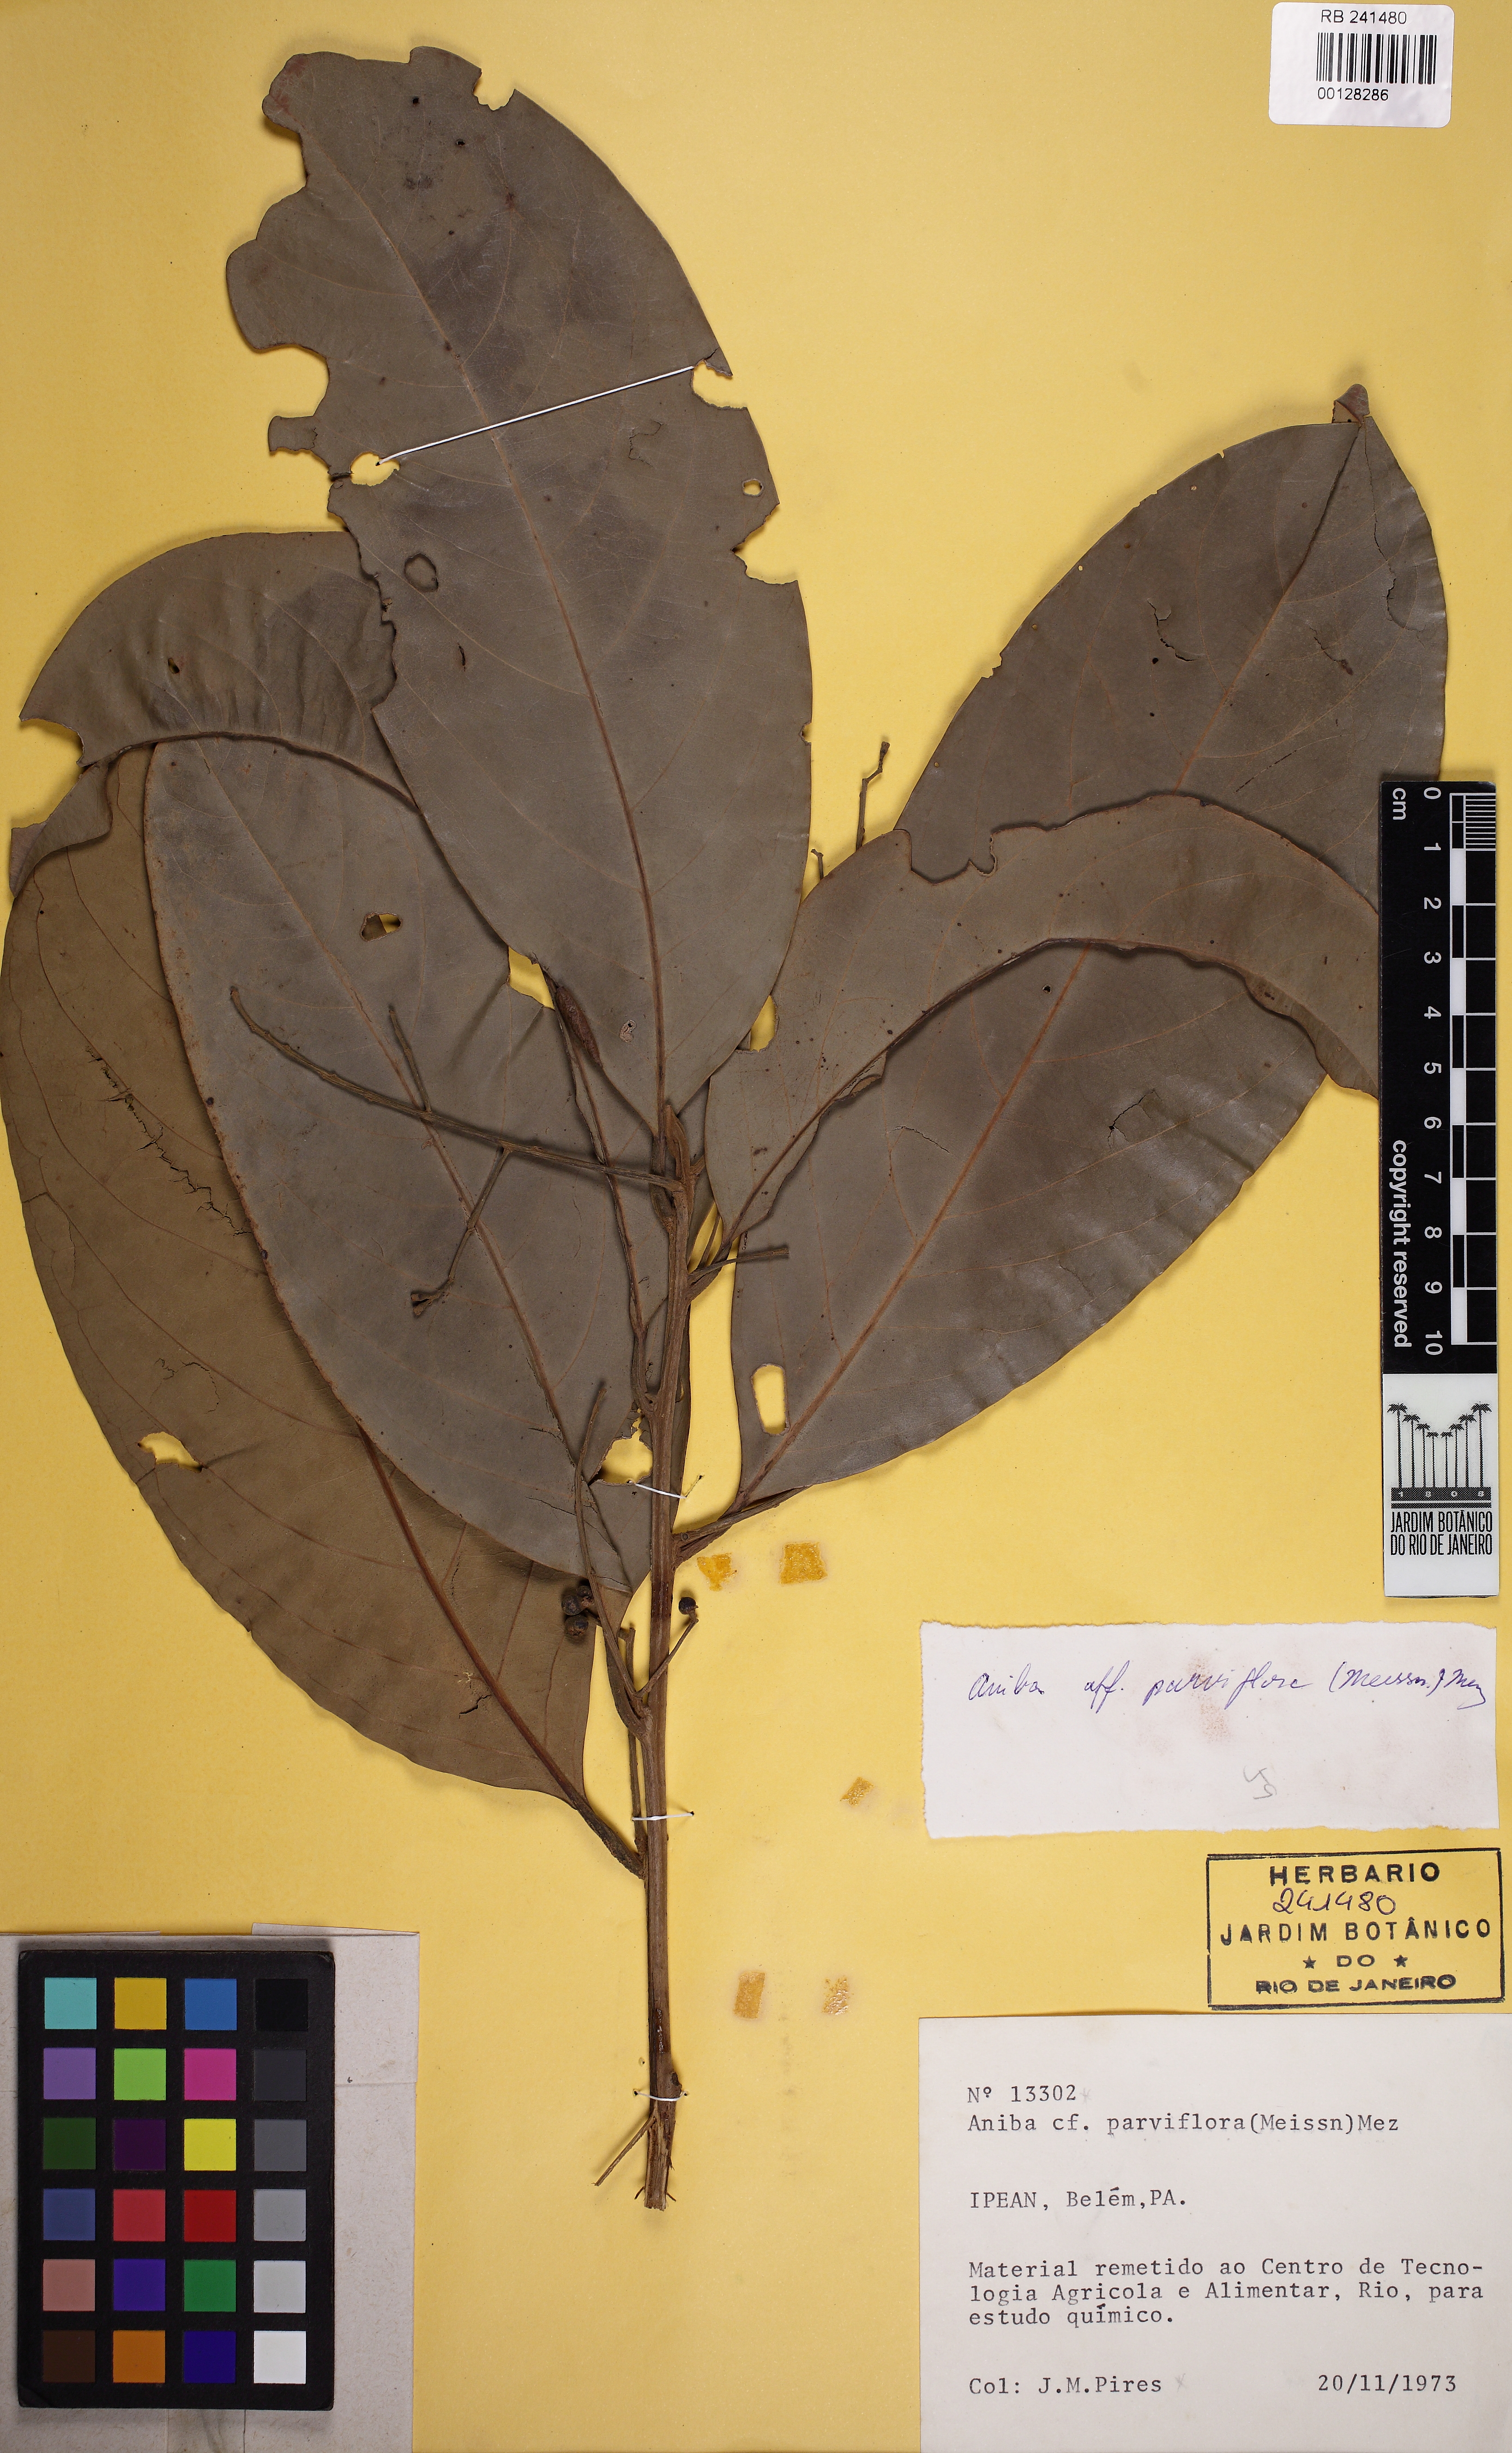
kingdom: Plantae
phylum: Tracheophyta
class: Magnoliopsida
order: Laurales
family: Lauraceae
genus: Aniba
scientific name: Aniba parviflora
